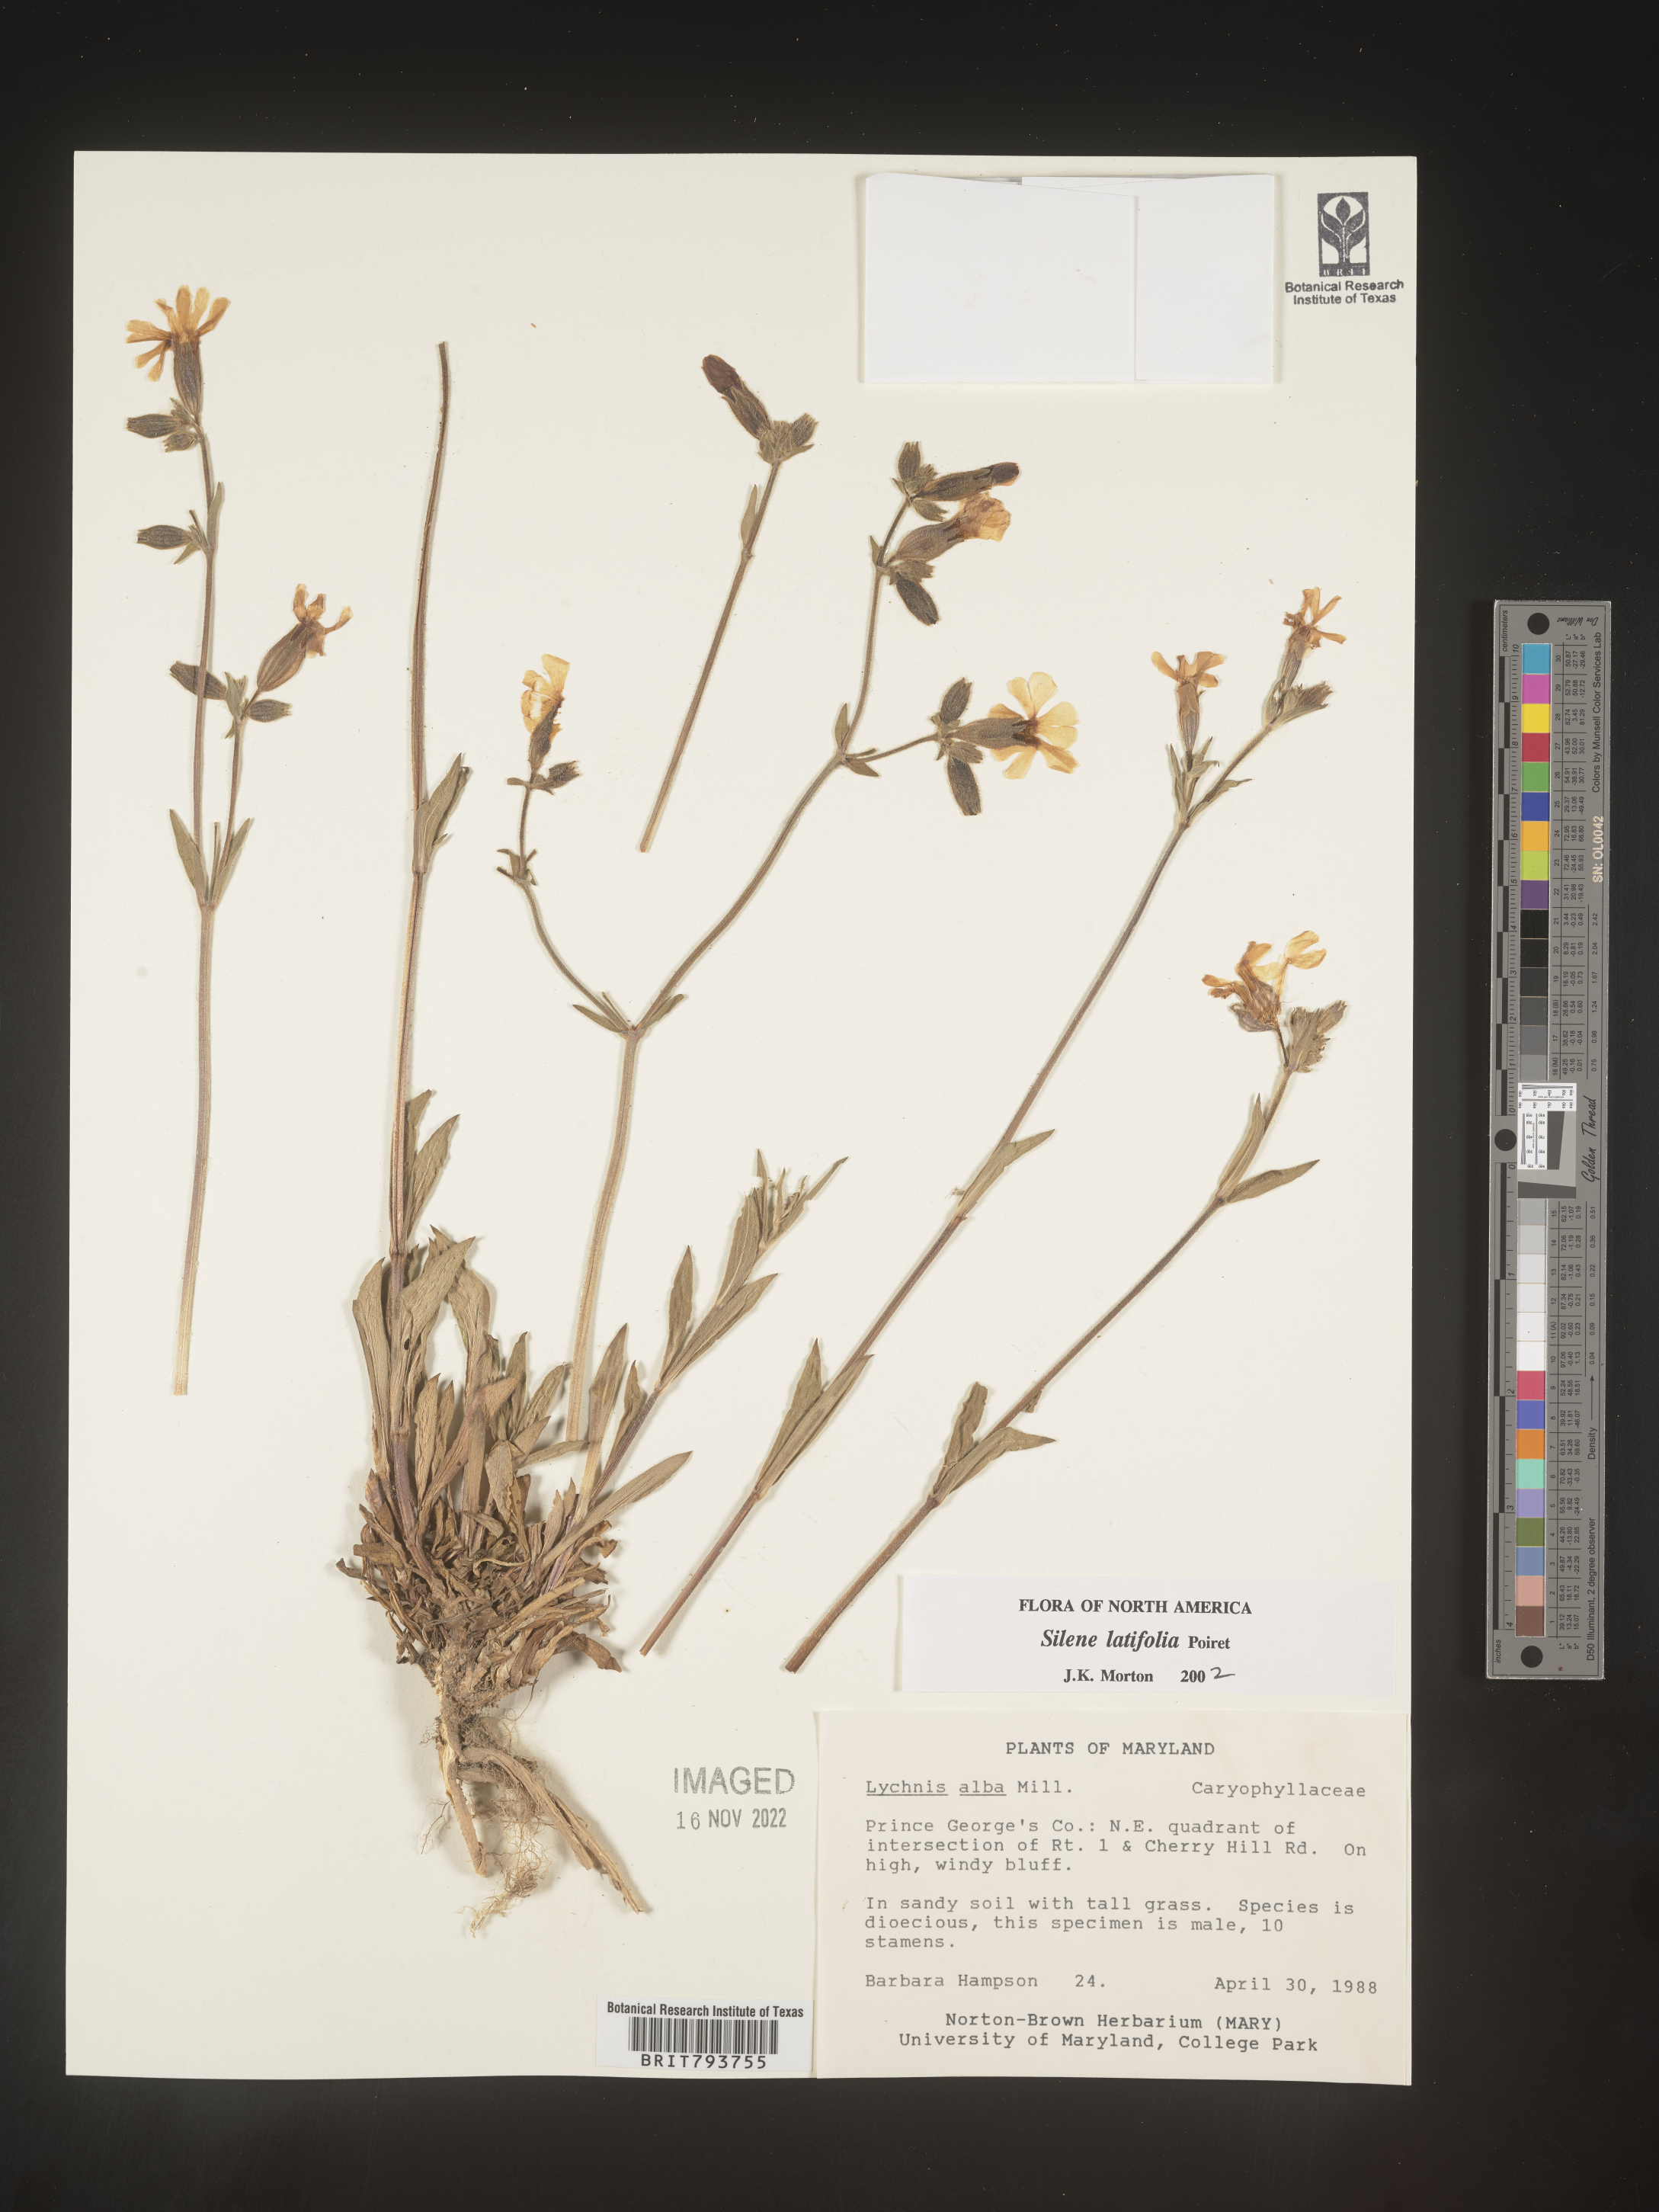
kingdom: Plantae
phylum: Tracheophyta
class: Magnoliopsida
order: Caryophyllales
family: Caryophyllaceae
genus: Silene
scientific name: Silene latifolia
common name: White campion
